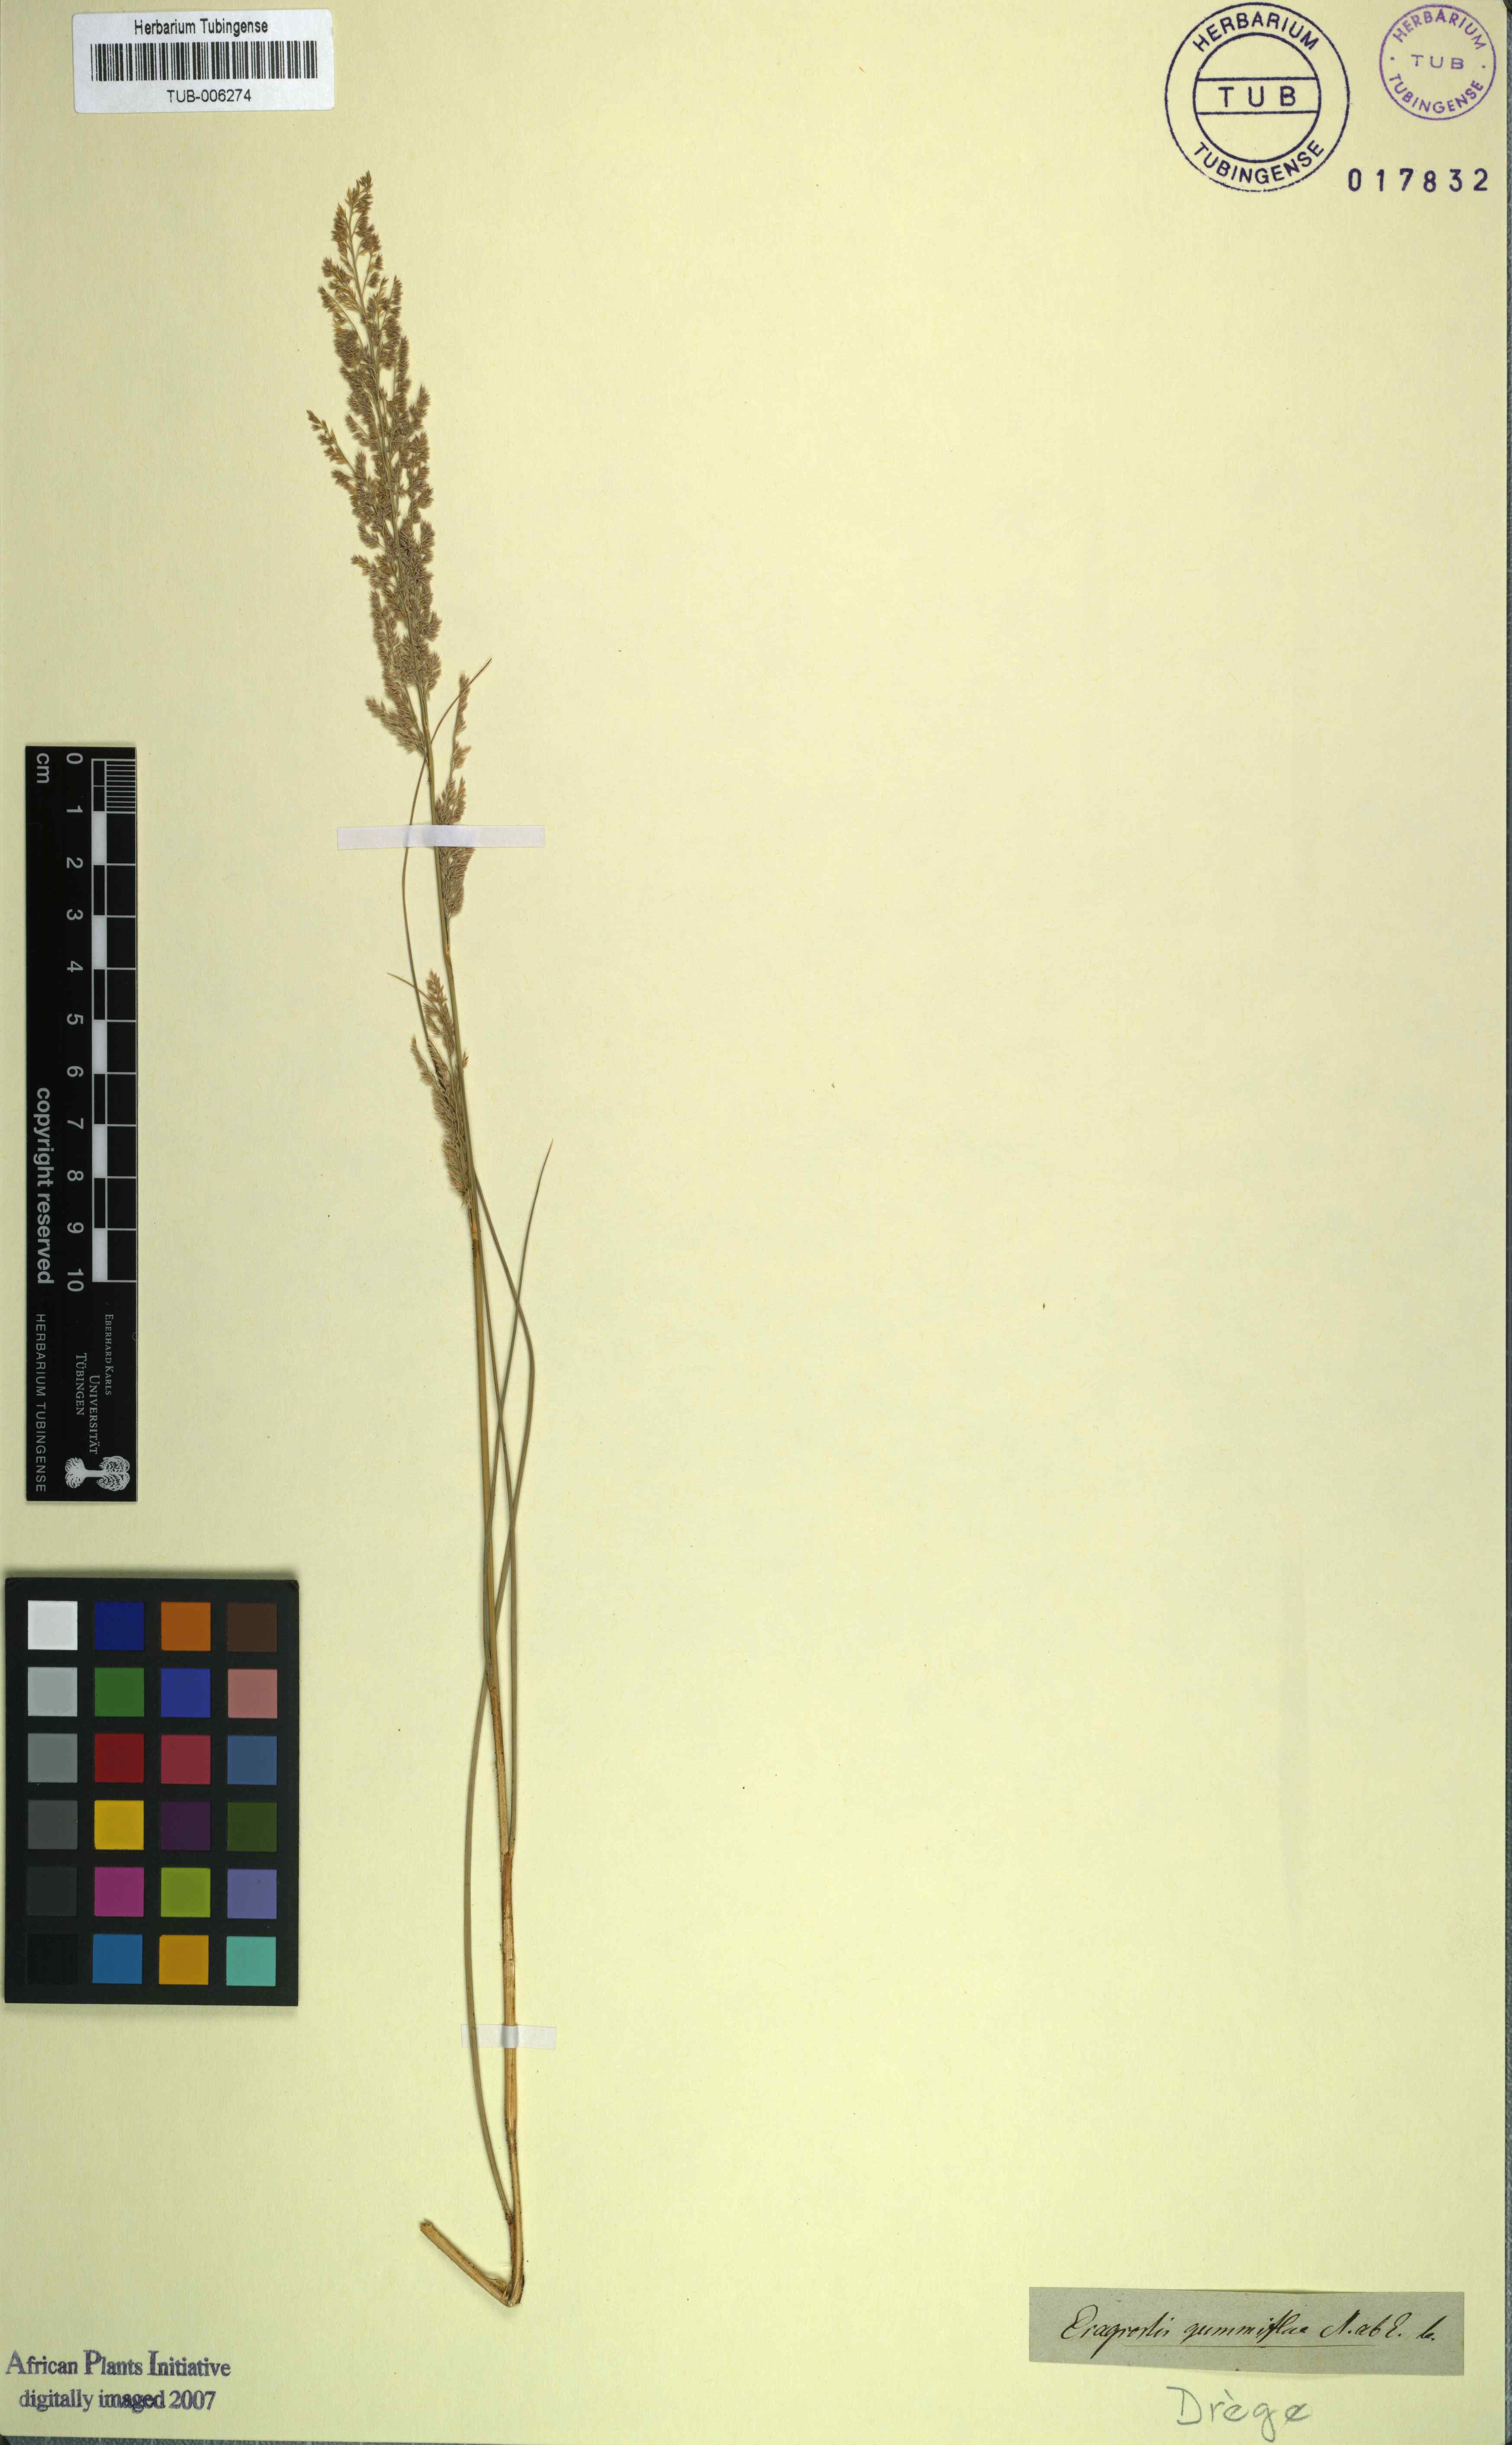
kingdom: Plantae
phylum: Tracheophyta
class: Liliopsida
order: Poales
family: Poaceae
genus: Eragrostis
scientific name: Eragrostis gummiflua
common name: Gum grass
